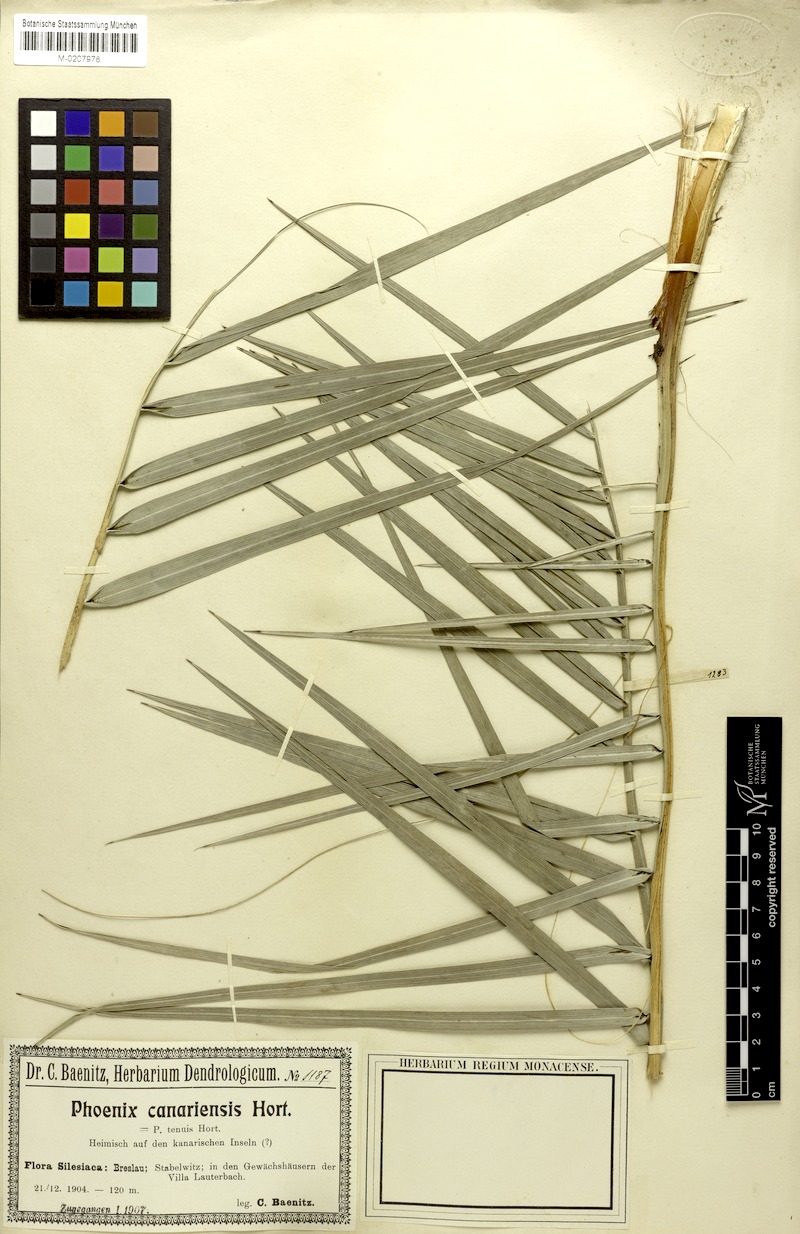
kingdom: Plantae
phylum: Tracheophyta
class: Liliopsida
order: Arecales
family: Arecaceae
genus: Phoenix
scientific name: Phoenix canariensis
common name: Canary island date palm
